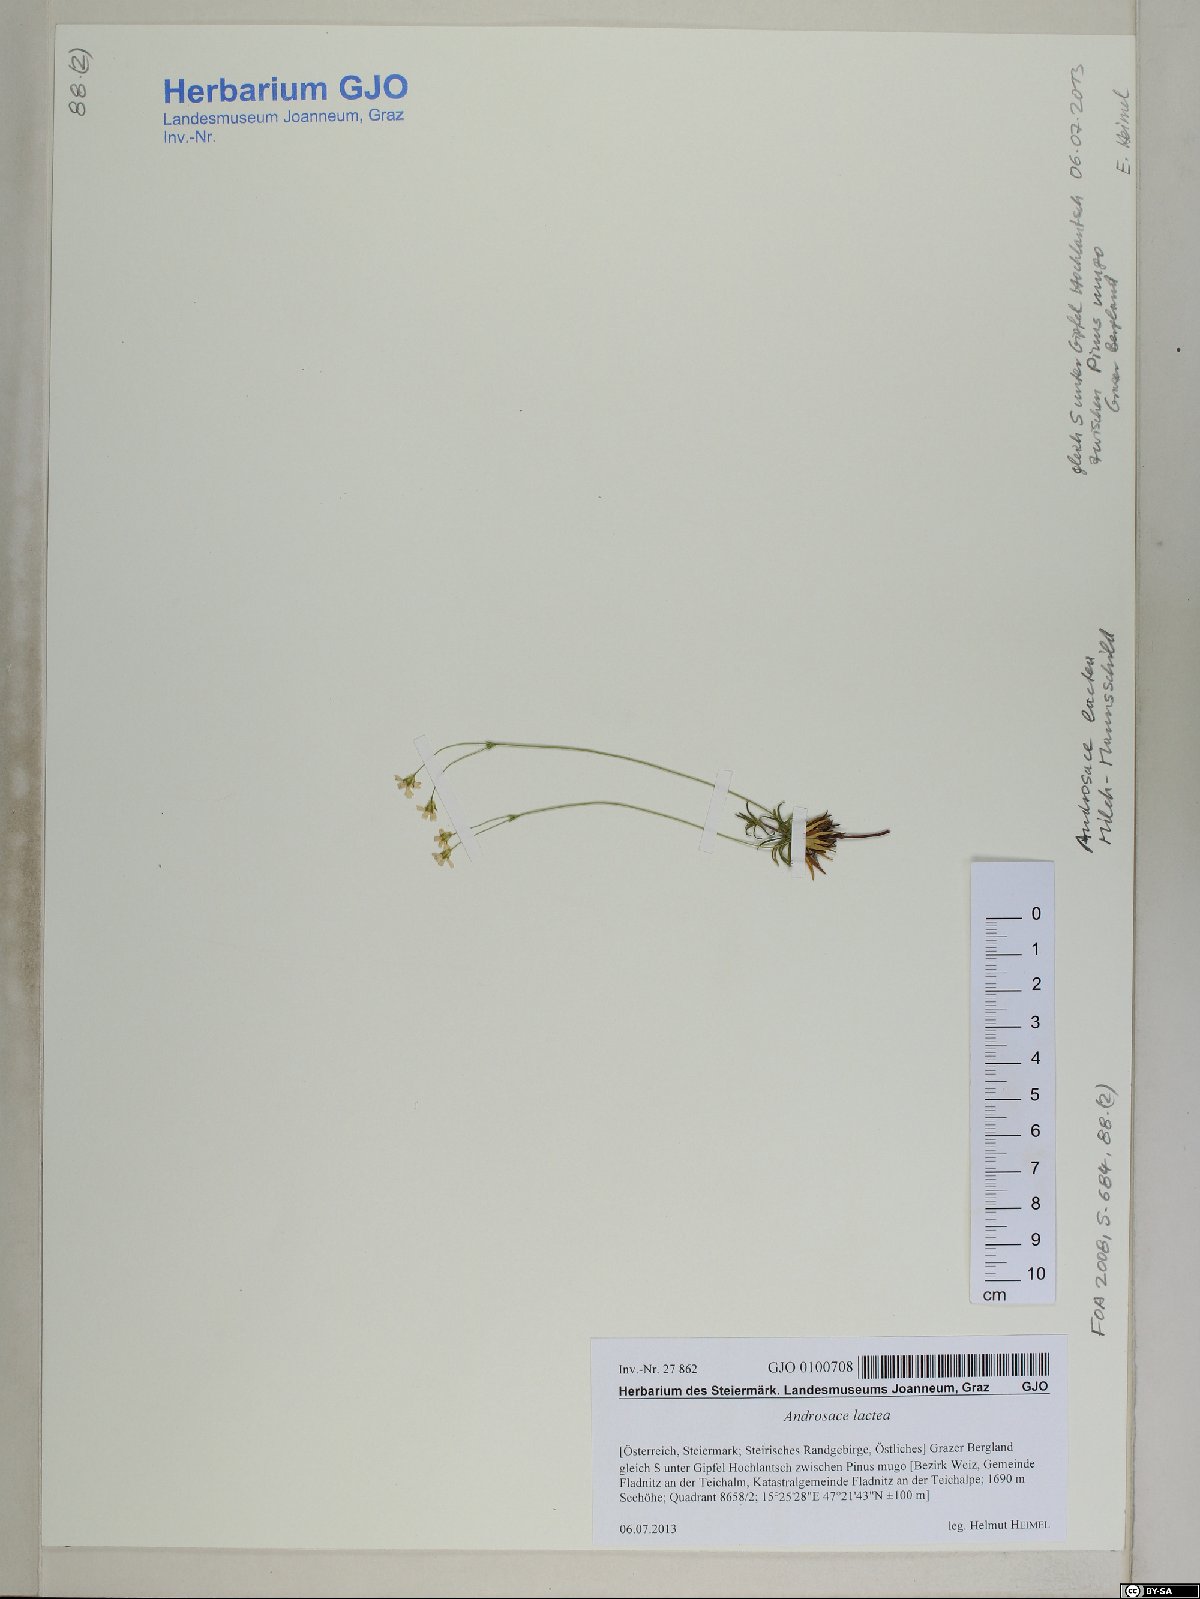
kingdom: Plantae
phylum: Tracheophyta
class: Magnoliopsida
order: Ericales
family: Primulaceae
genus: Androsace
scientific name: Androsace lactea
